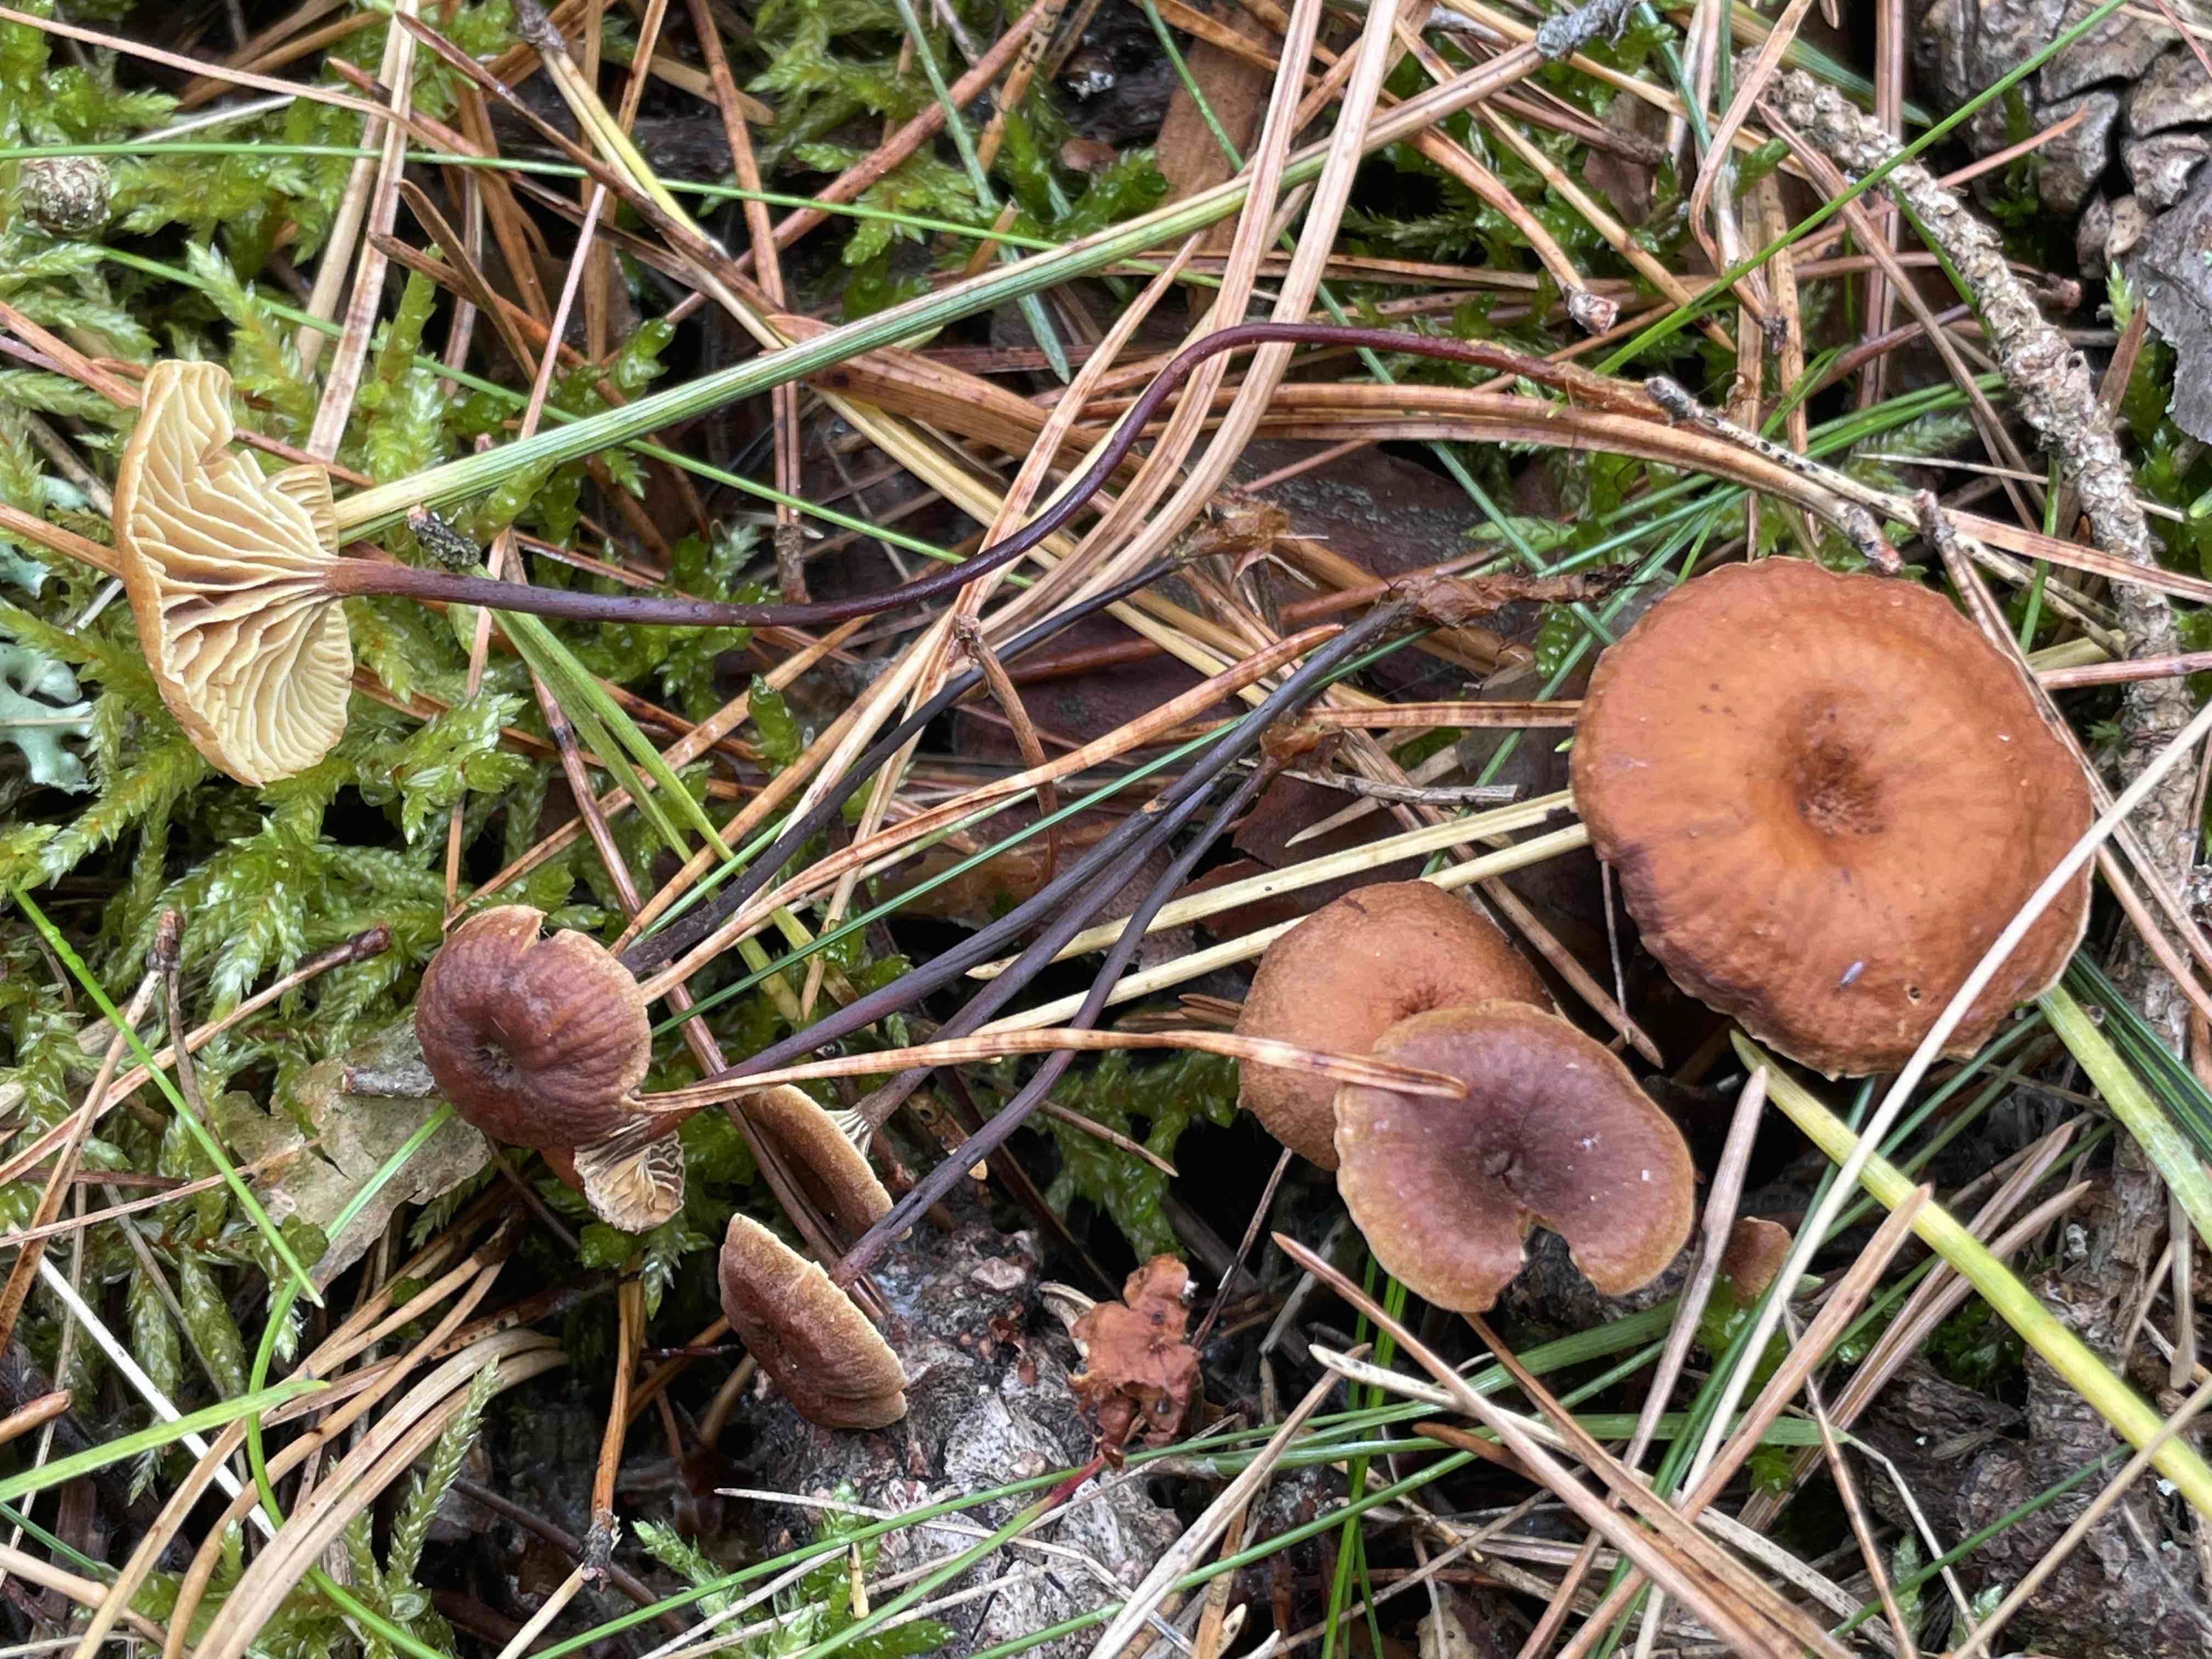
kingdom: Fungi
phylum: Basidiomycota
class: Agaricomycetes
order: Agaricales
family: Mycenaceae
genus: Xeromphalina
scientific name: Xeromphalina cauticinalis
